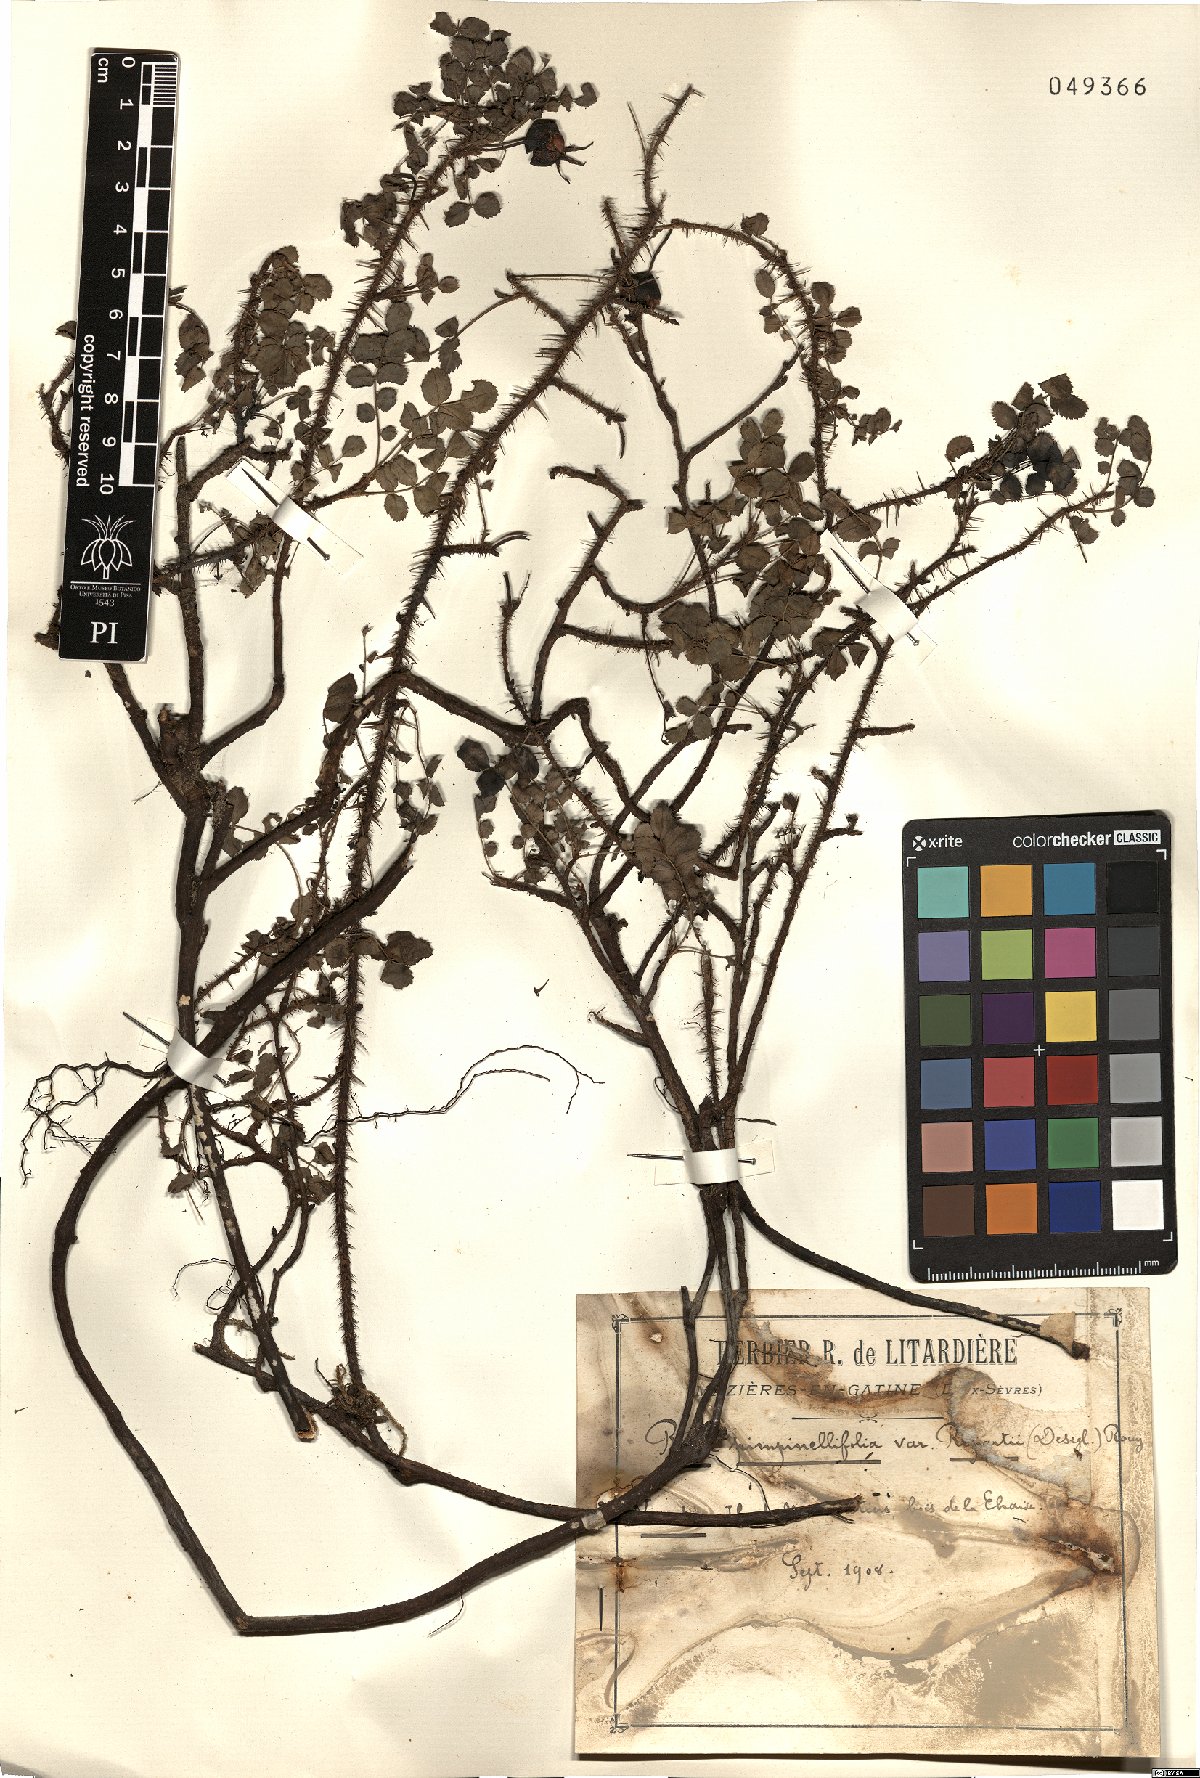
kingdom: Plantae
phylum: Tracheophyta
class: Magnoliopsida
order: Rosales
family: Rosaceae
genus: Rosa
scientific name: Rosa spinosissima
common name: Burnet rose
